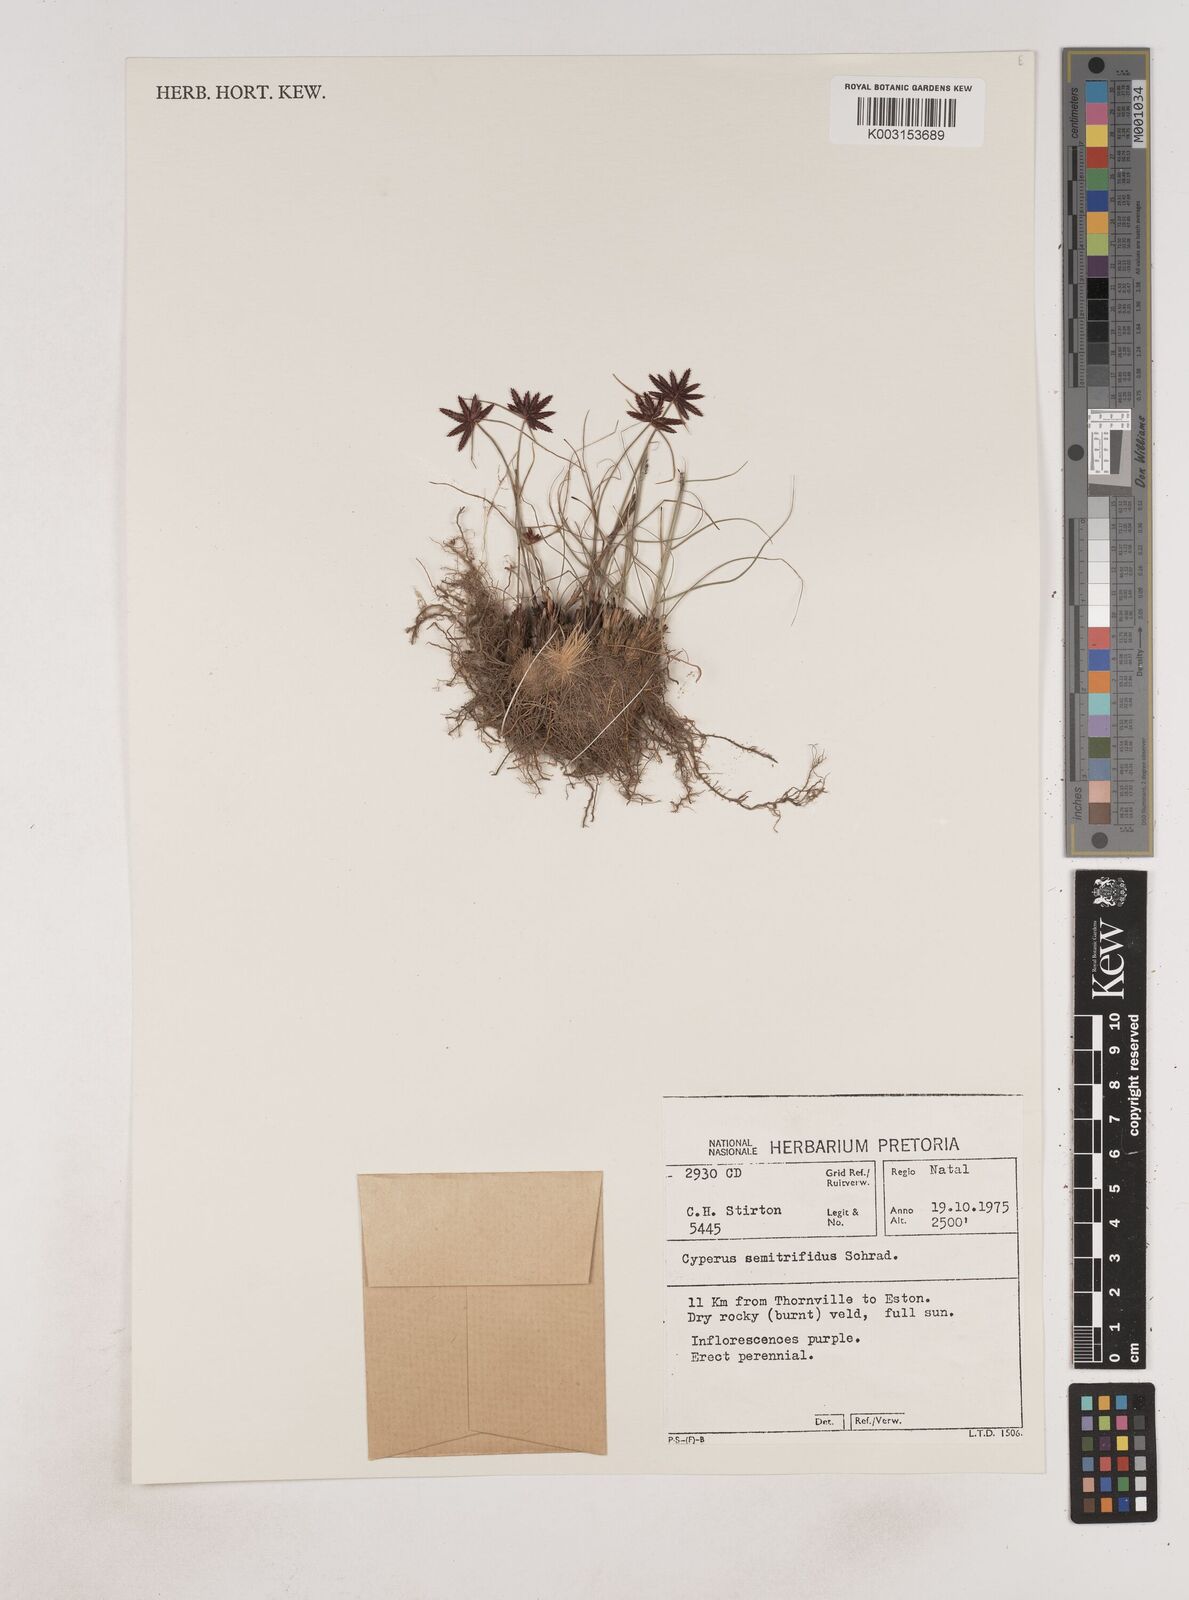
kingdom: Plantae
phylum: Tracheophyta
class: Liliopsida
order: Poales
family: Cyperaceae
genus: Cyperus
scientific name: Cyperus semitrifidus
